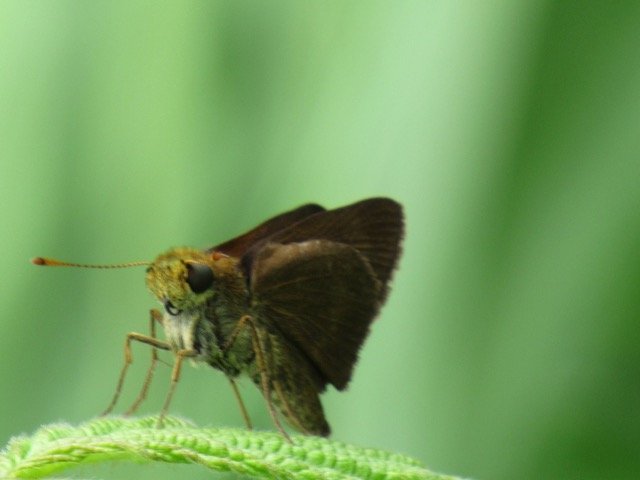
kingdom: Animalia
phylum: Arthropoda
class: Insecta
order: Lepidoptera
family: Hesperiidae
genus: Polites
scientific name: Polites egeremet
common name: Northern Broken-Dash
